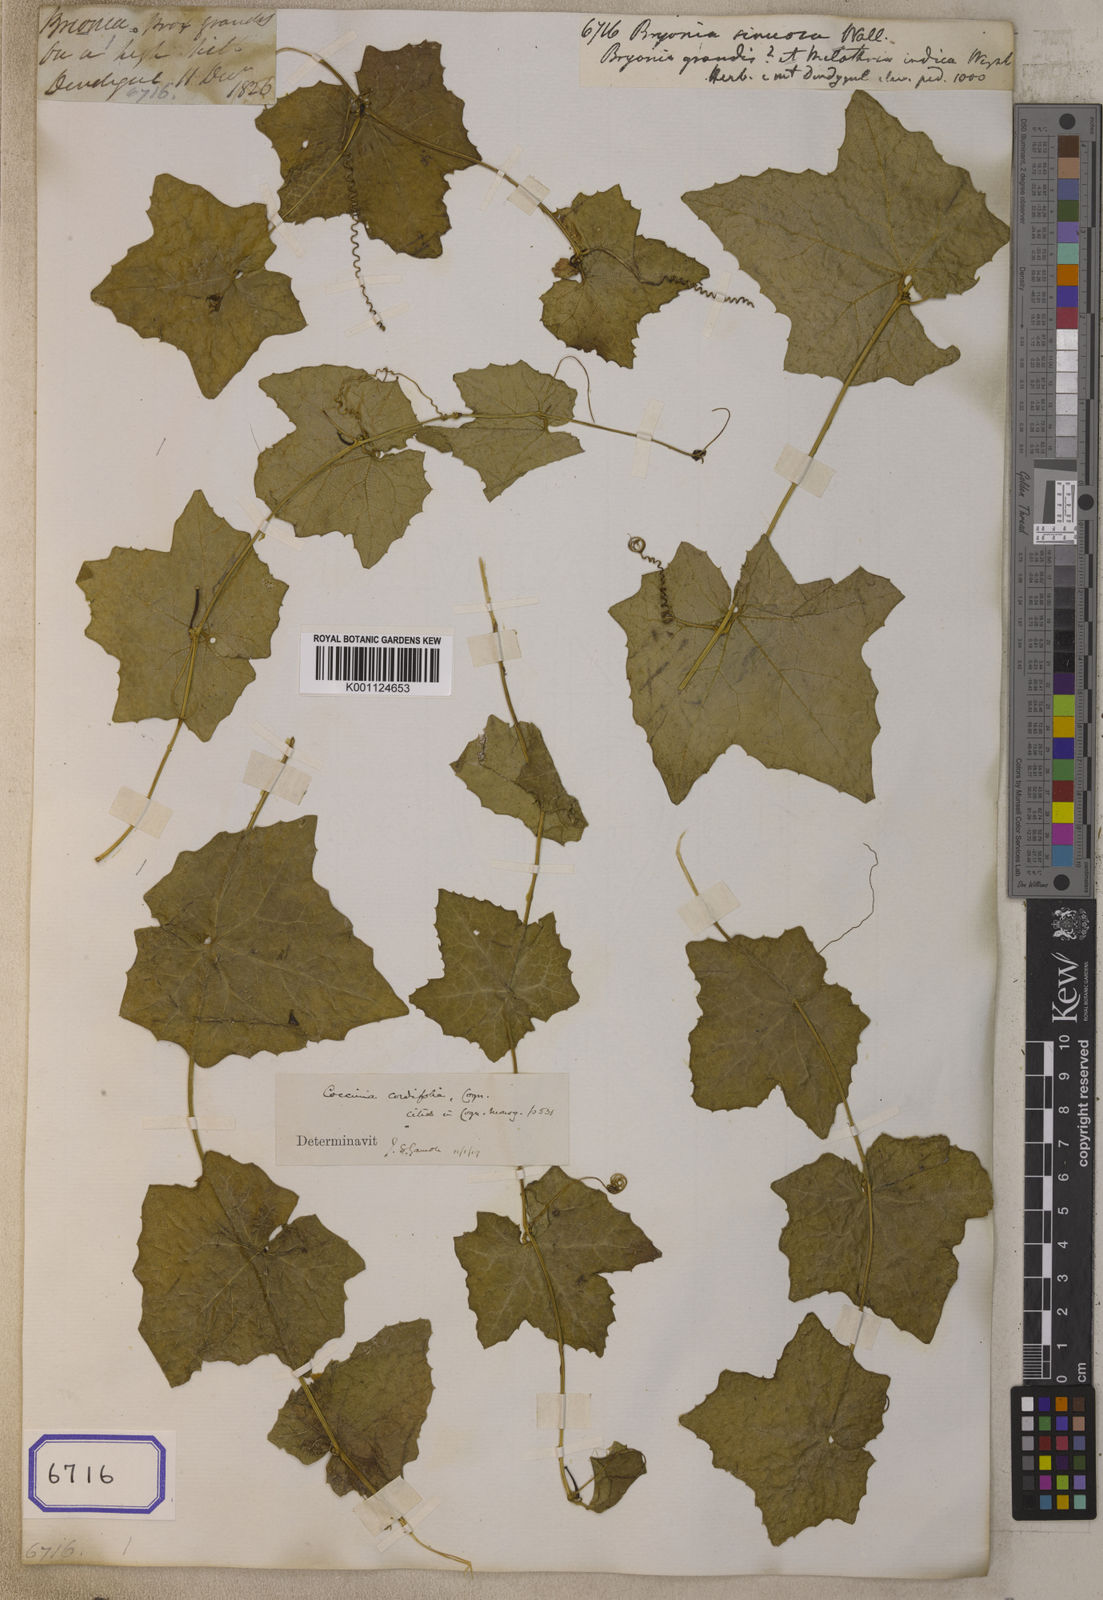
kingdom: Plantae
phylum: Tracheophyta
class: Magnoliopsida
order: Cucurbitales
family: Cucurbitaceae
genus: Coccinia
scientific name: Coccinia grandis
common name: Ivy gourd
